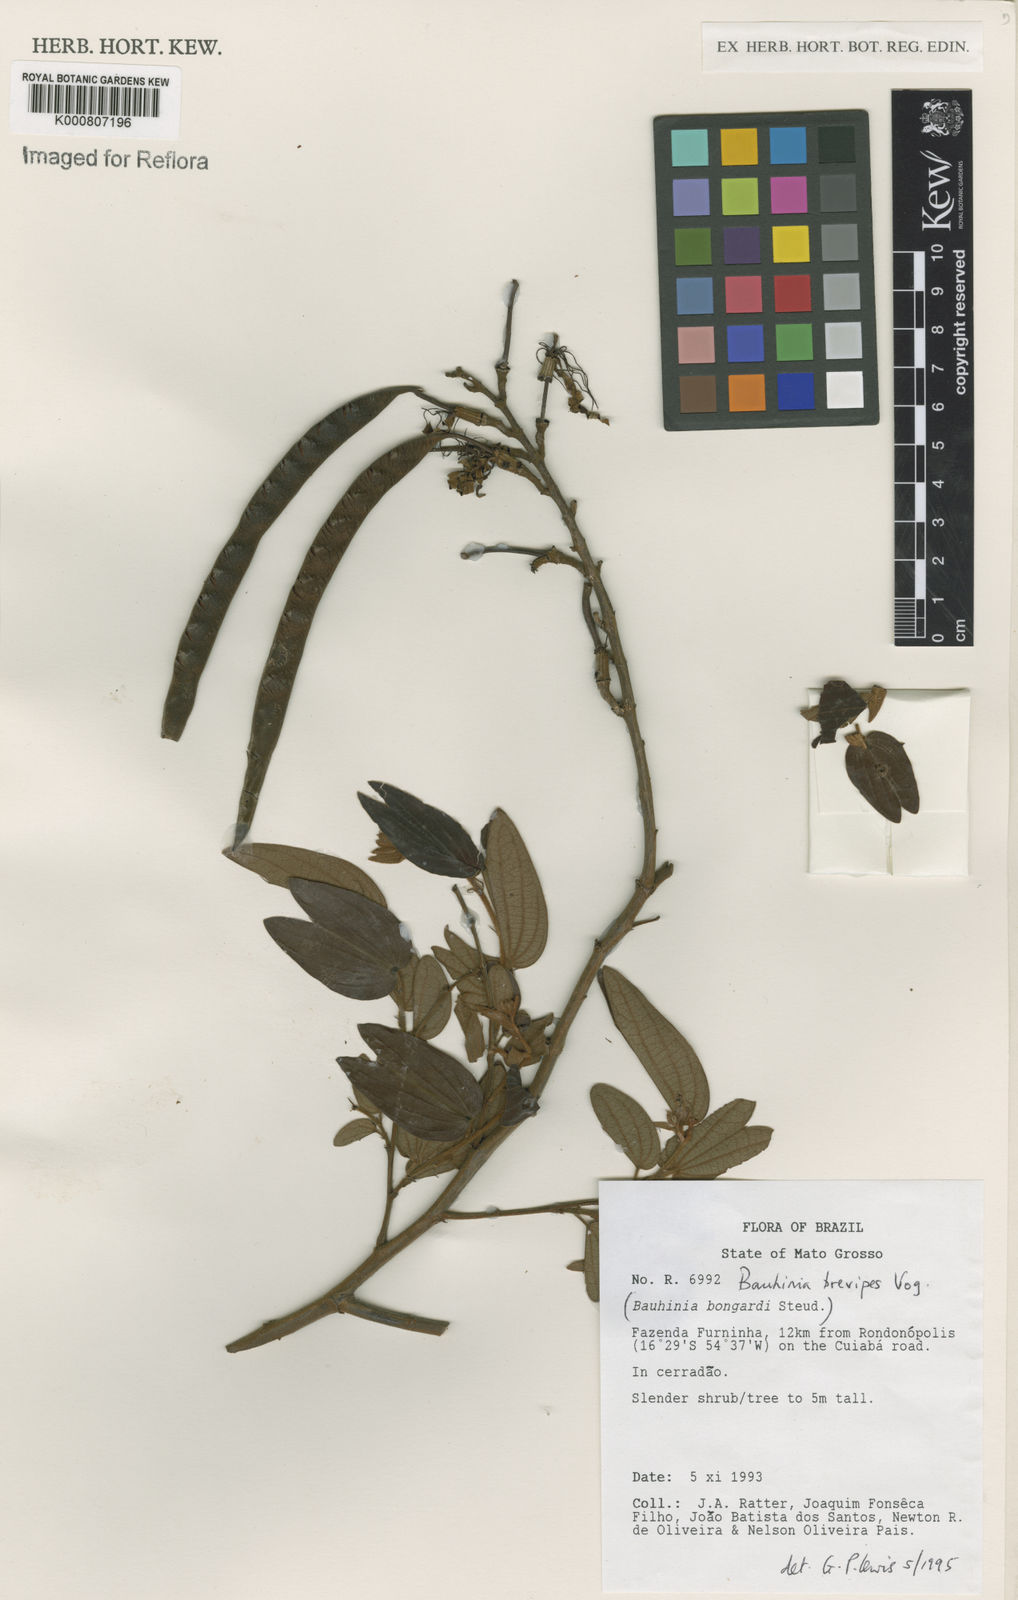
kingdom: Plantae
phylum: Tracheophyta
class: Magnoliopsida
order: Fabales
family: Fabaceae
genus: Bauhinia
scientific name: Bauhinia brevipes
